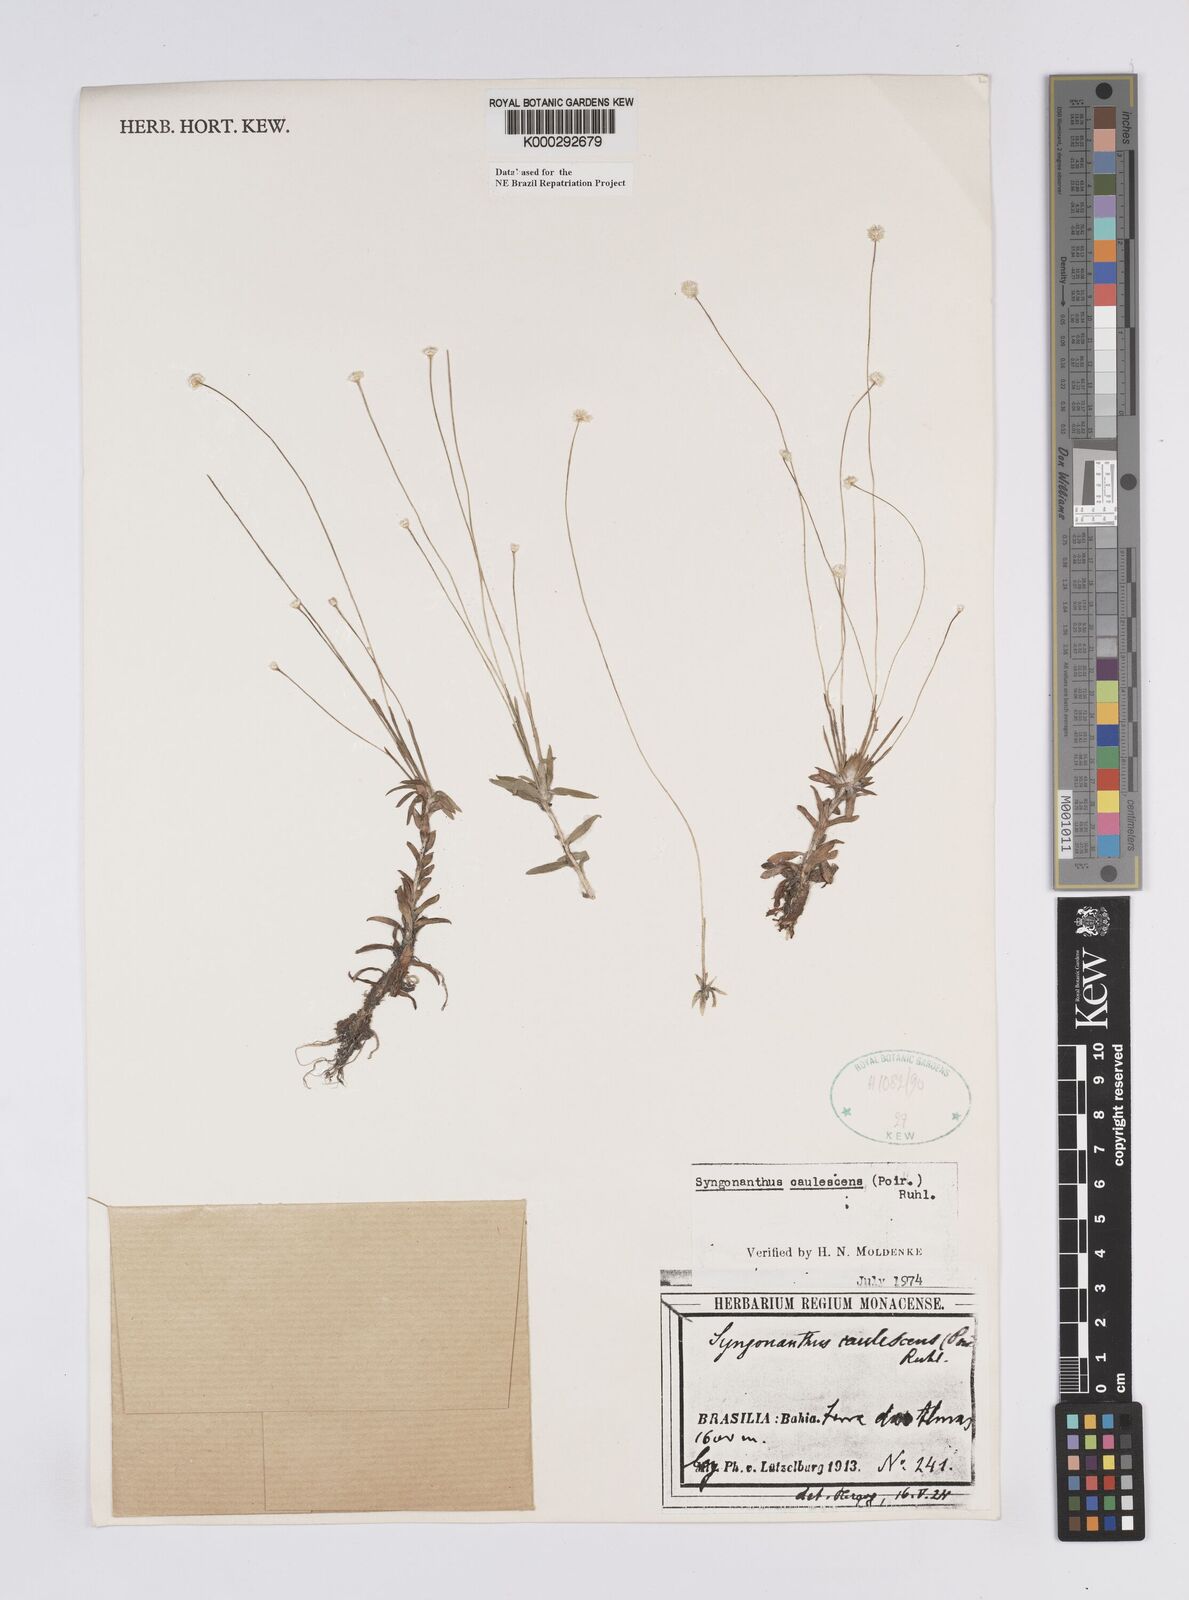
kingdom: Plantae
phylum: Tracheophyta
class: Liliopsida
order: Poales
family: Eriocaulaceae
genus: Syngonanthus
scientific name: Syngonanthus caulescens
